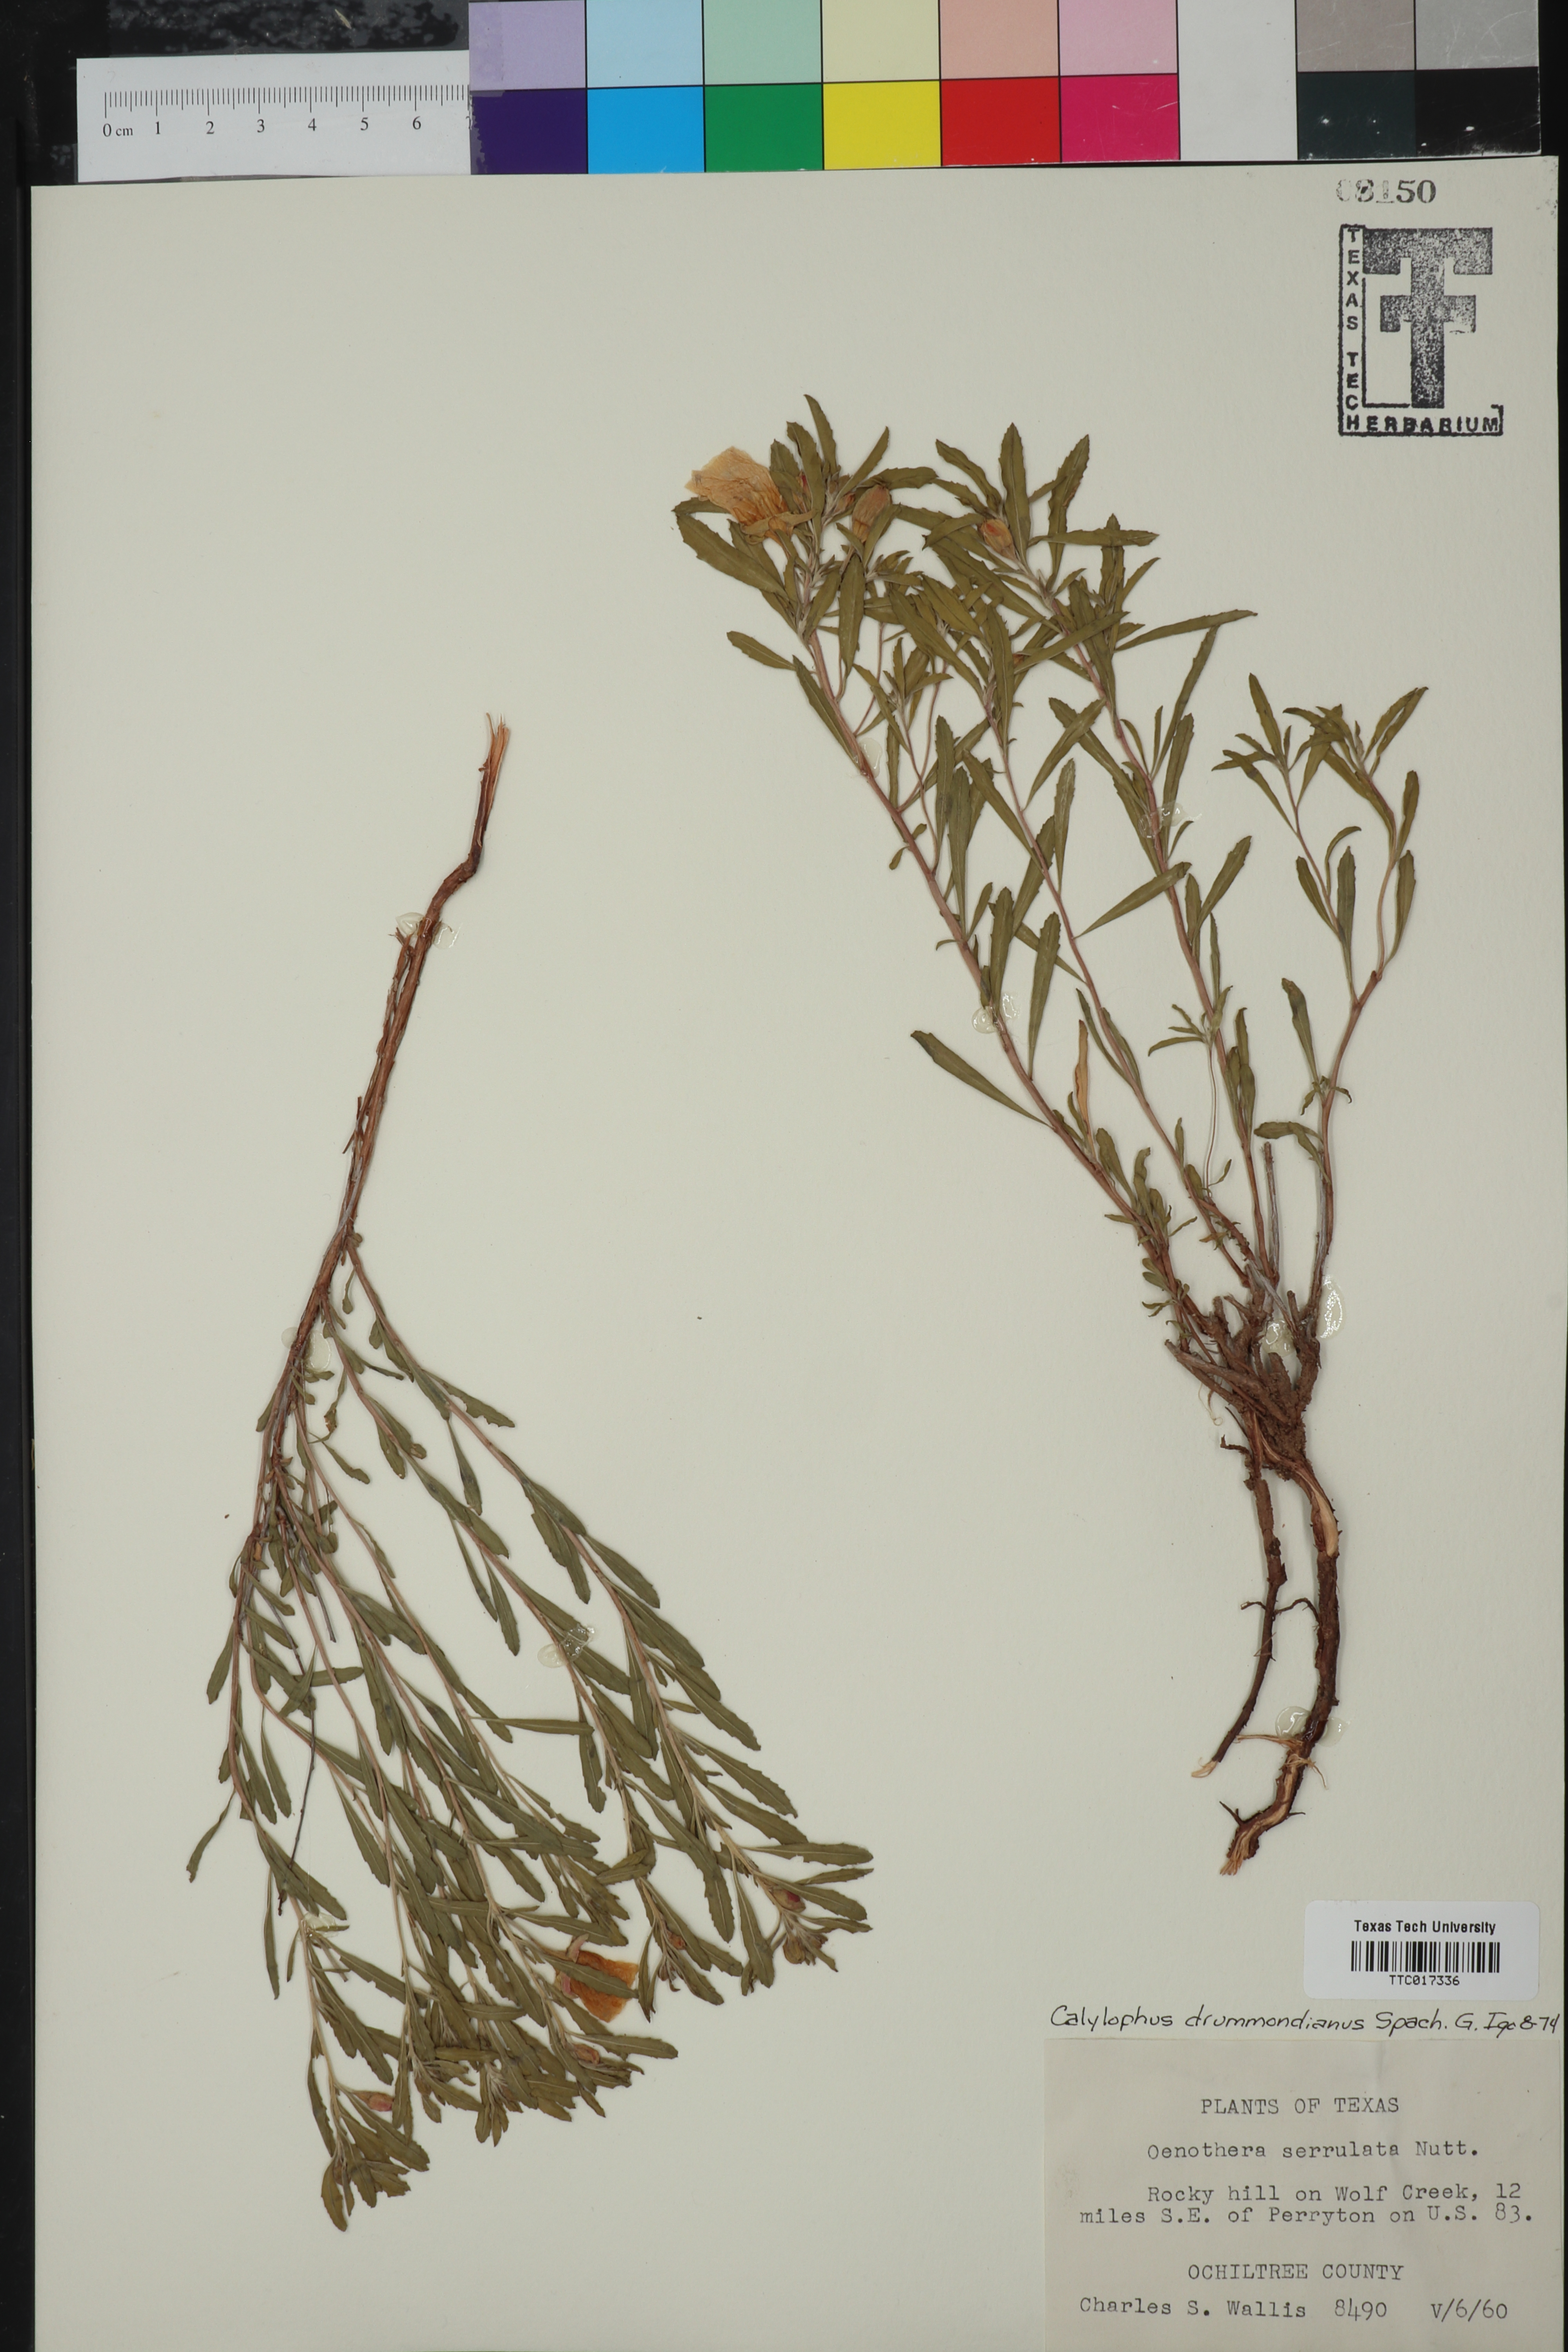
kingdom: Plantae
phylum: Tracheophyta
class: Magnoliopsida
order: Myrtales
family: Onagraceae
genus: Oenothera
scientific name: Oenothera serrulata
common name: Half-shrub calylophus
